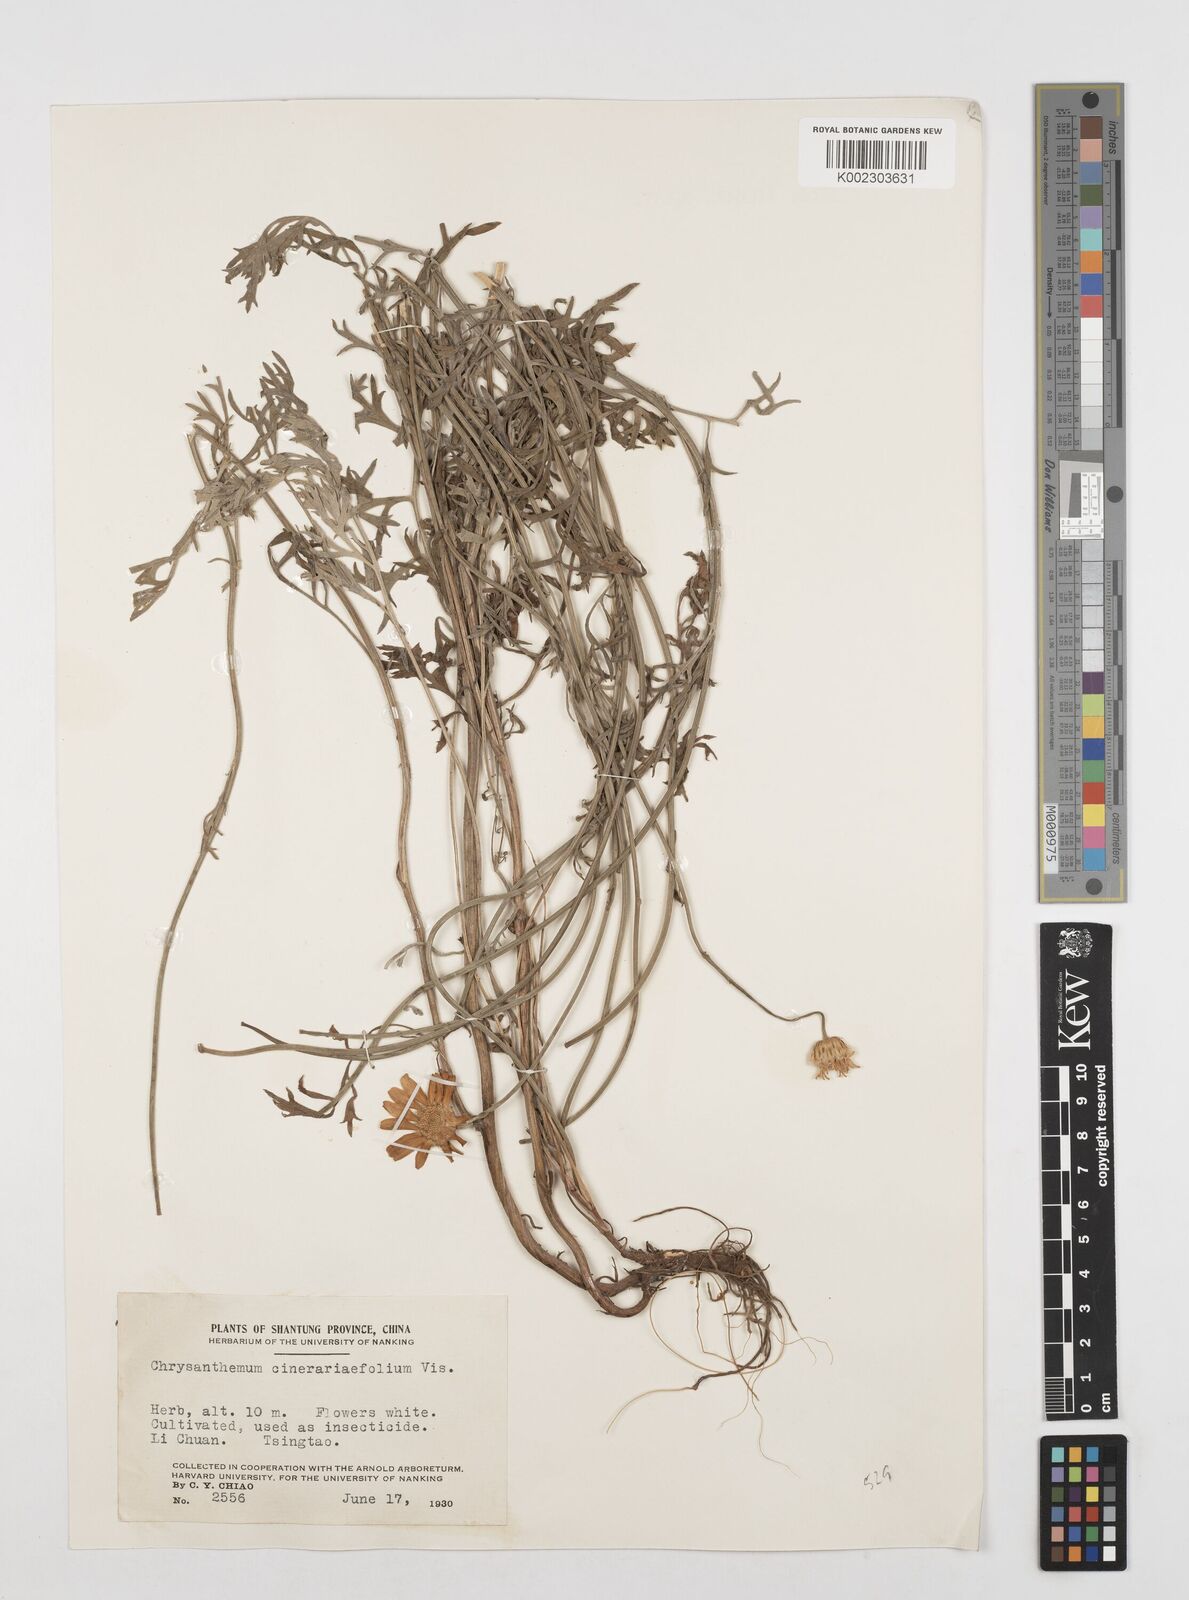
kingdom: Plantae
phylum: Tracheophyta
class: Magnoliopsida
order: Asterales
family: Asteraceae
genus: Tanacetum
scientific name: Tanacetum cinerariifolium
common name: Dalmatian pyrethrum
